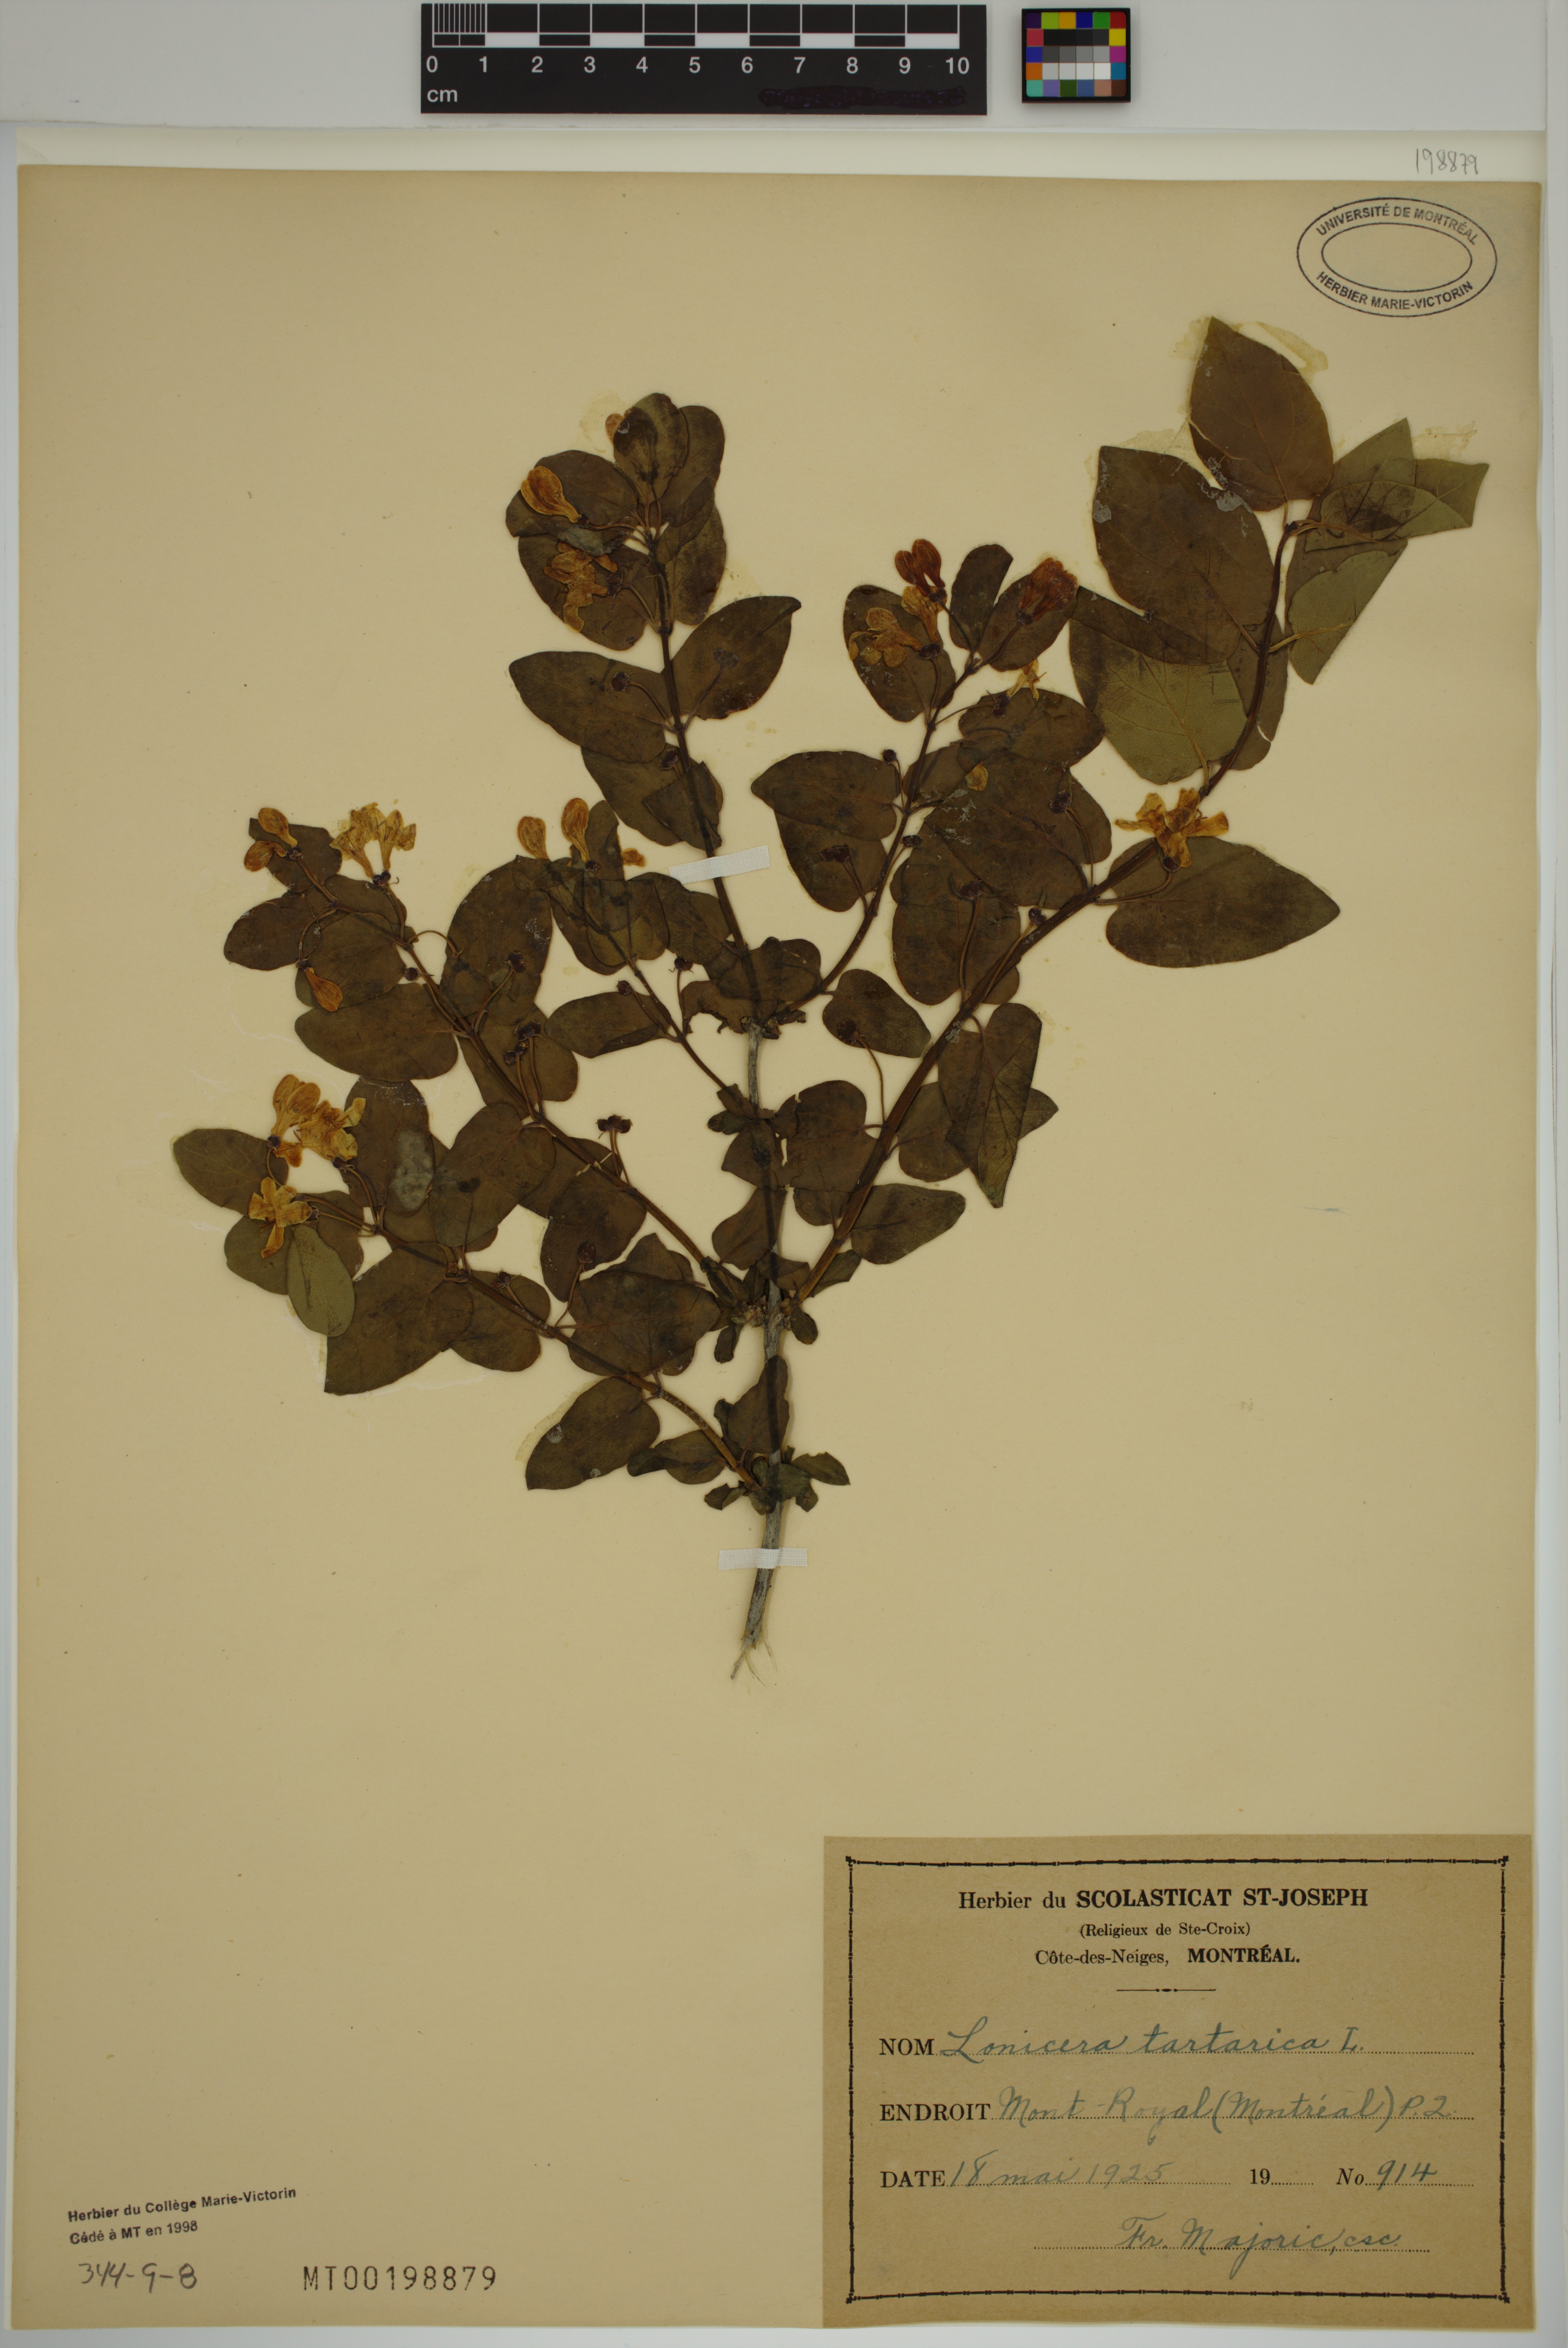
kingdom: Plantae
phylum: Tracheophyta
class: Magnoliopsida
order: Dipsacales
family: Caprifoliaceae
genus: Lonicera
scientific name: Lonicera tatarica
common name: Tatarian honeysuckle
